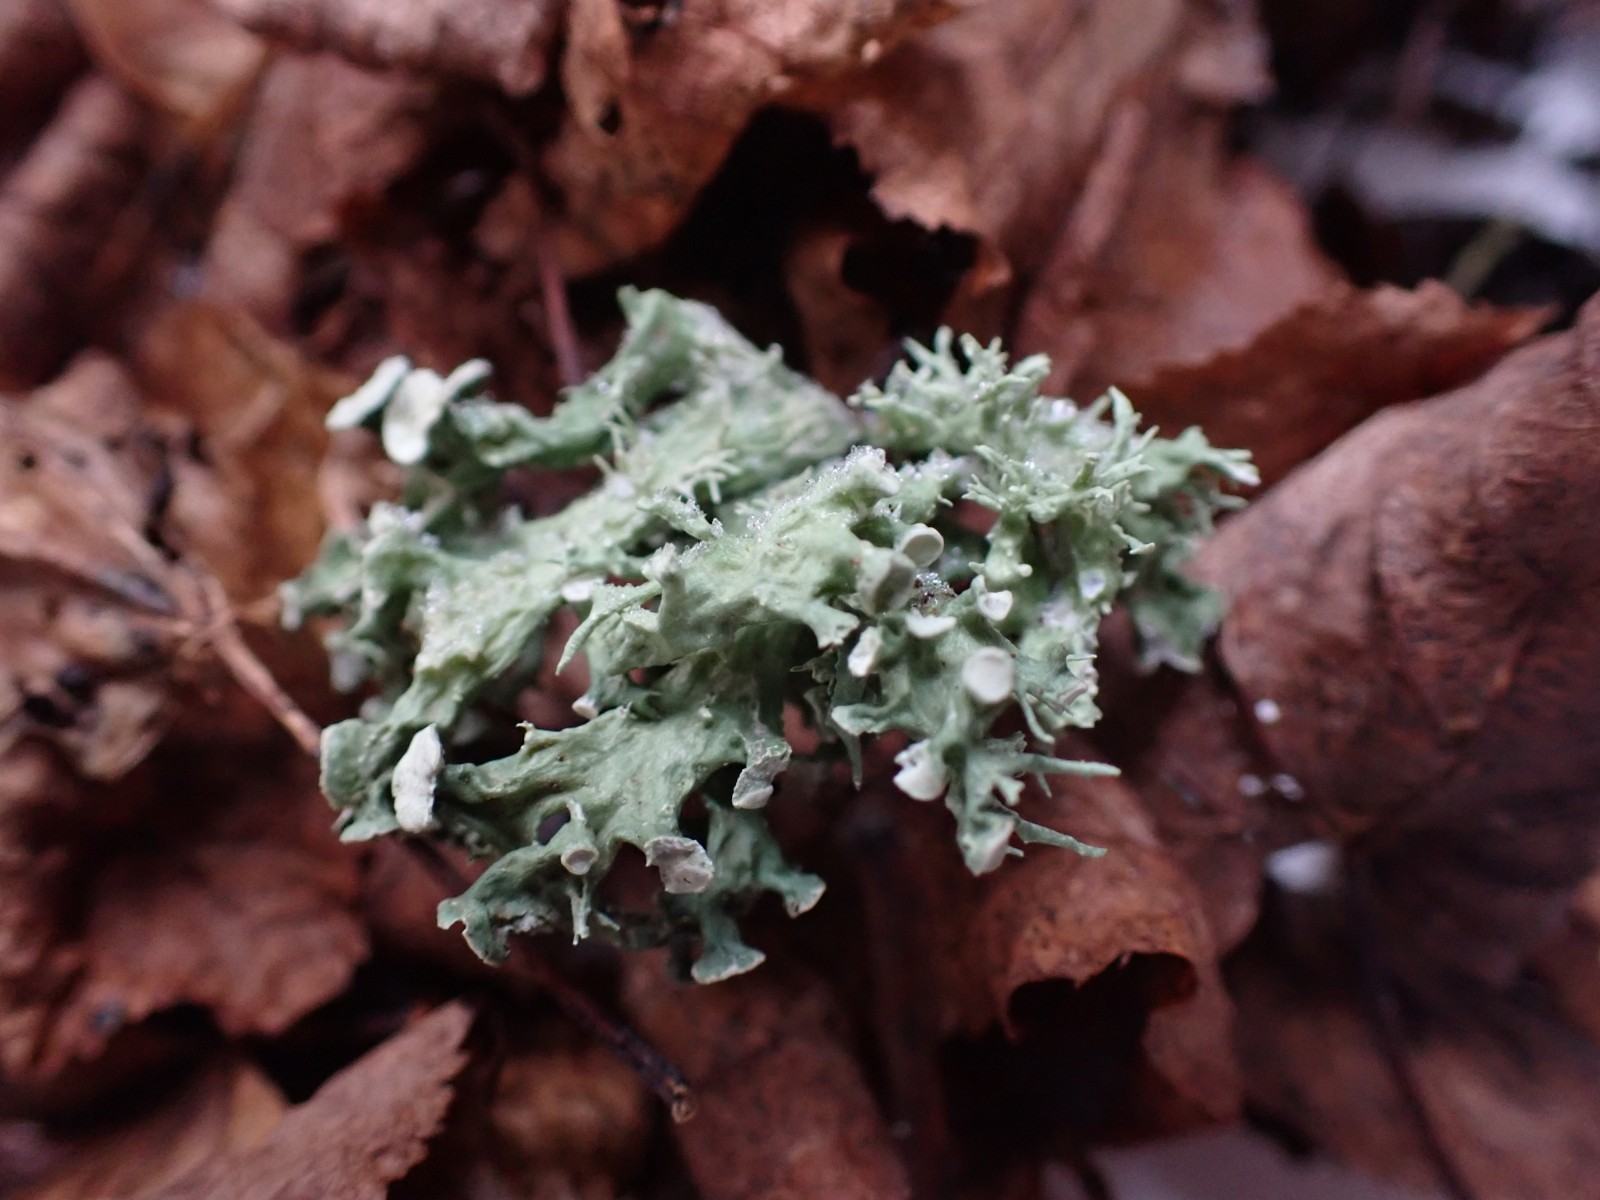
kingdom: Fungi
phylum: Ascomycota
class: Lecanoromycetes
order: Lecanorales
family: Ramalinaceae
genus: Ramalina
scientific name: Ramalina fastigiata
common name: tue-grenlav
